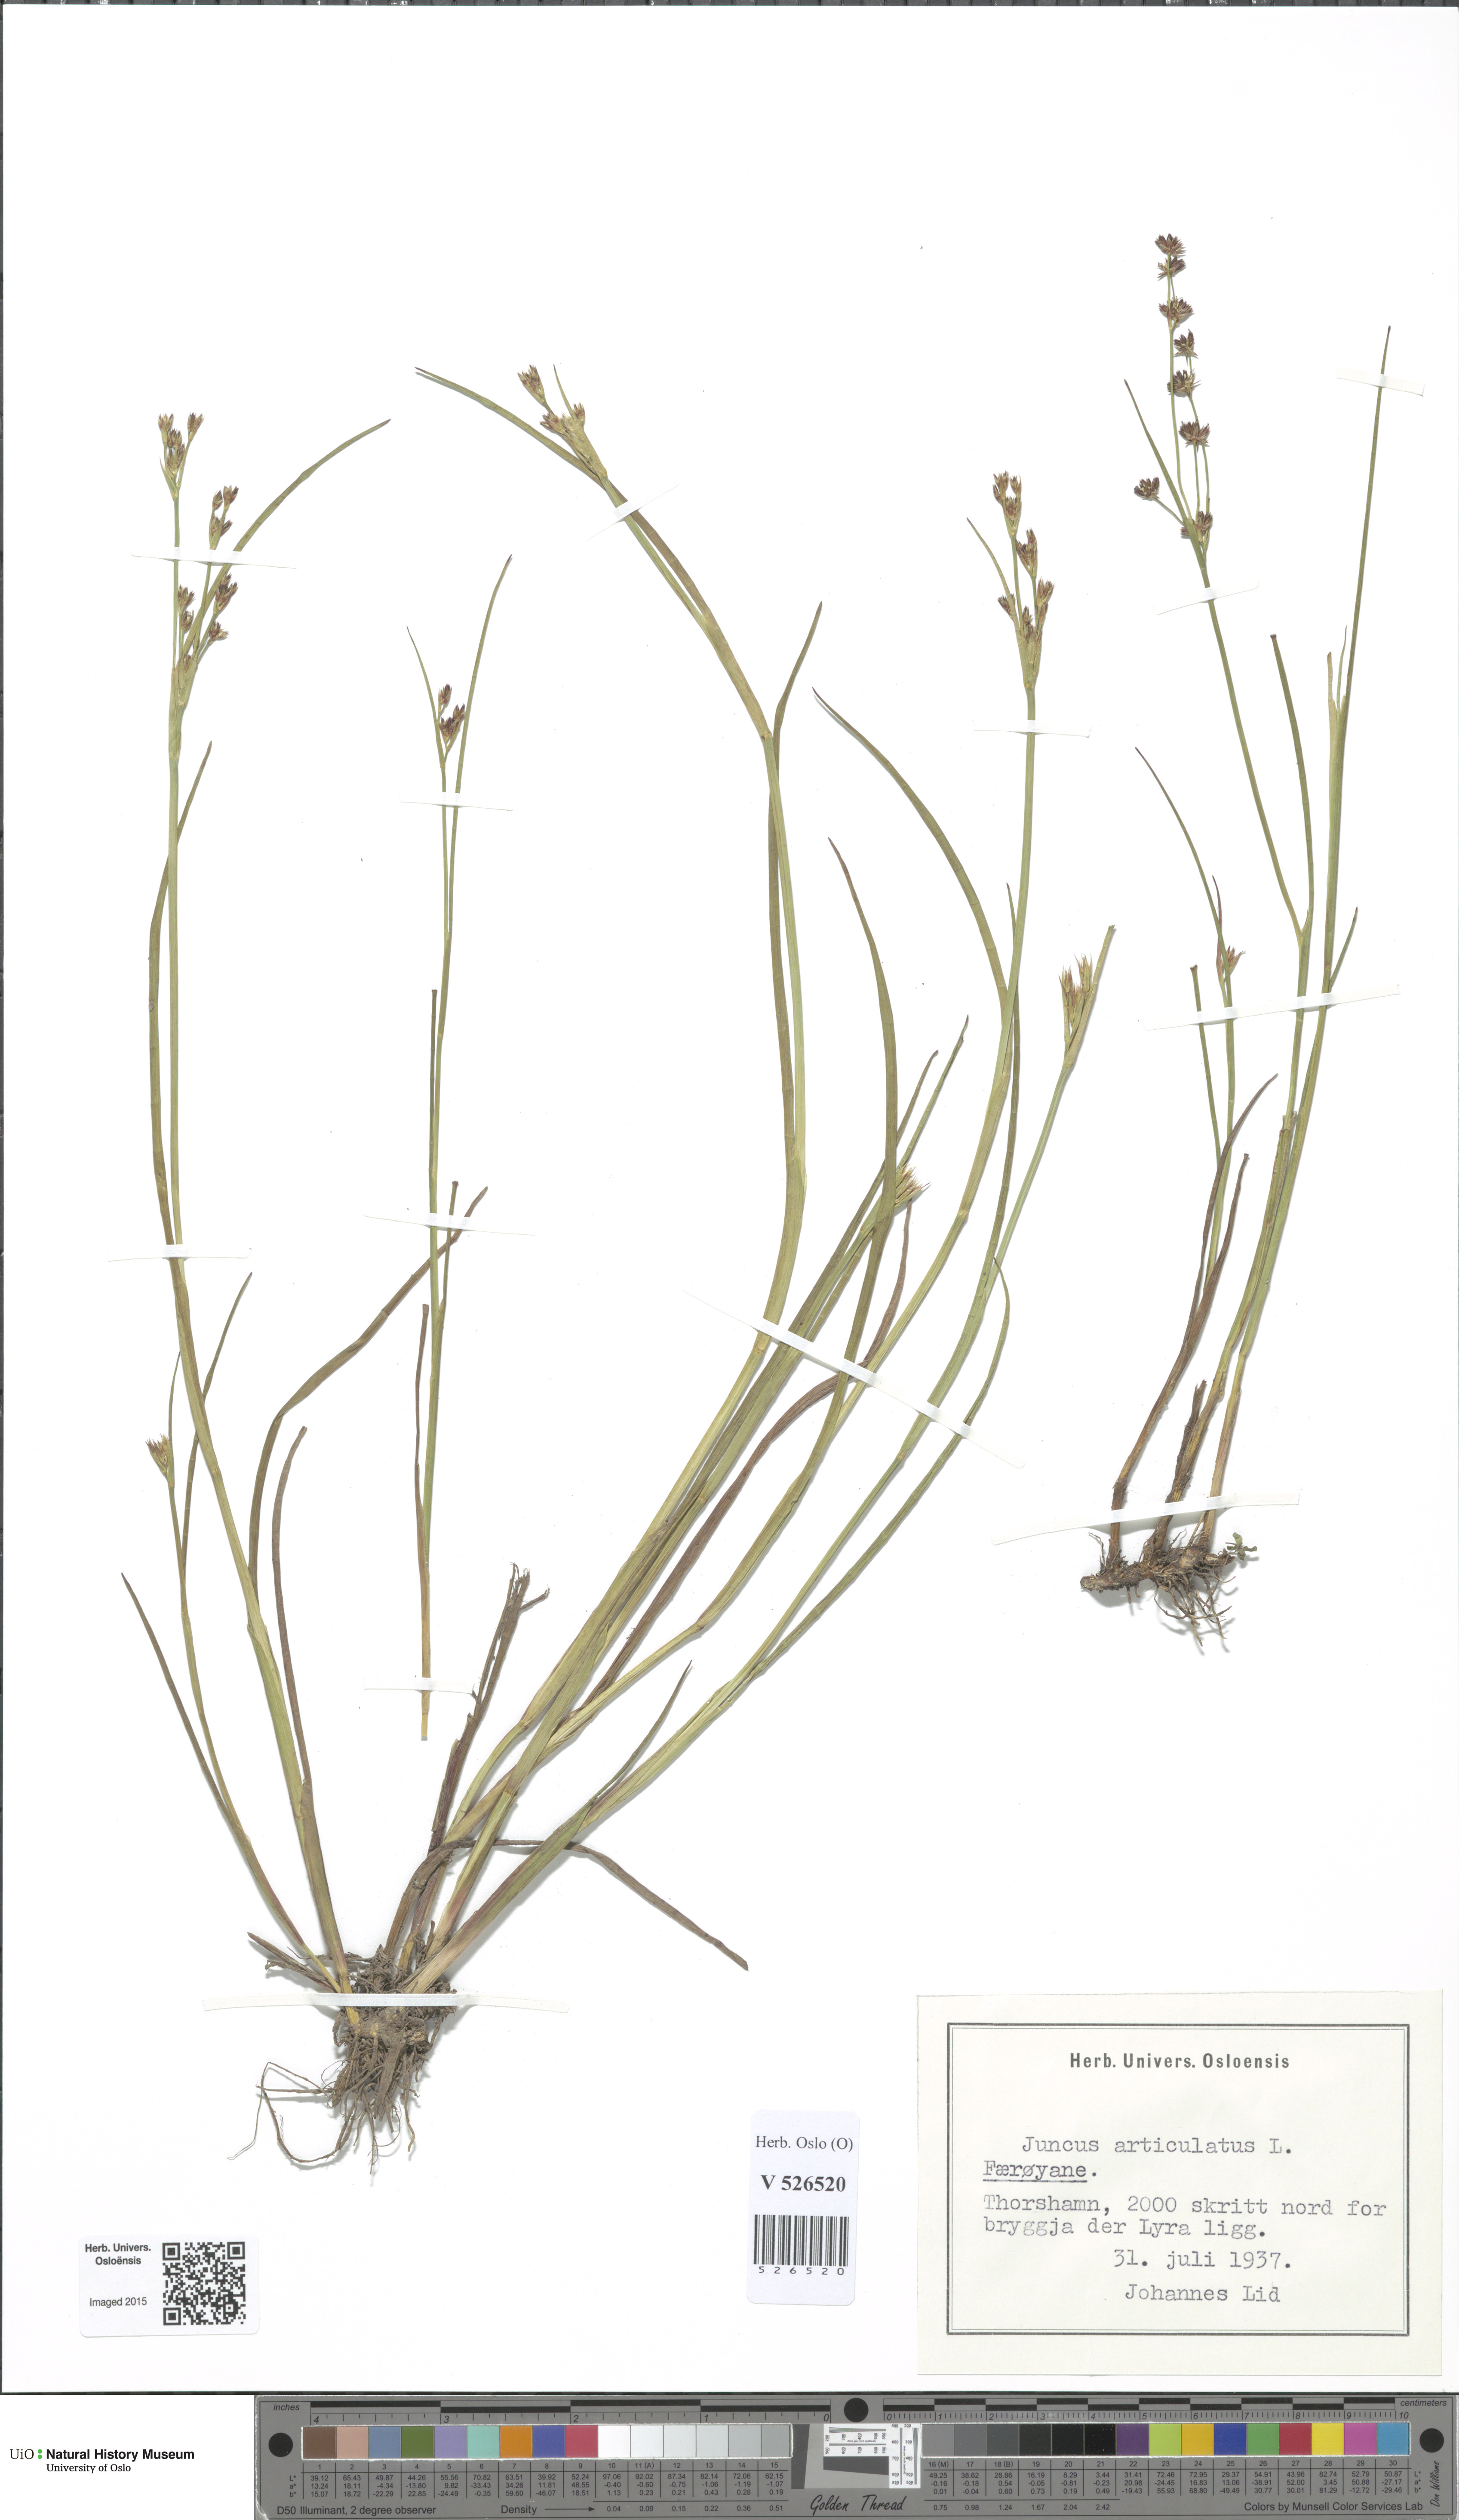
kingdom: Plantae
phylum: Tracheophyta
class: Liliopsida
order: Poales
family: Juncaceae
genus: Juncus
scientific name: Juncus articulatus
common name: Jointed rush
